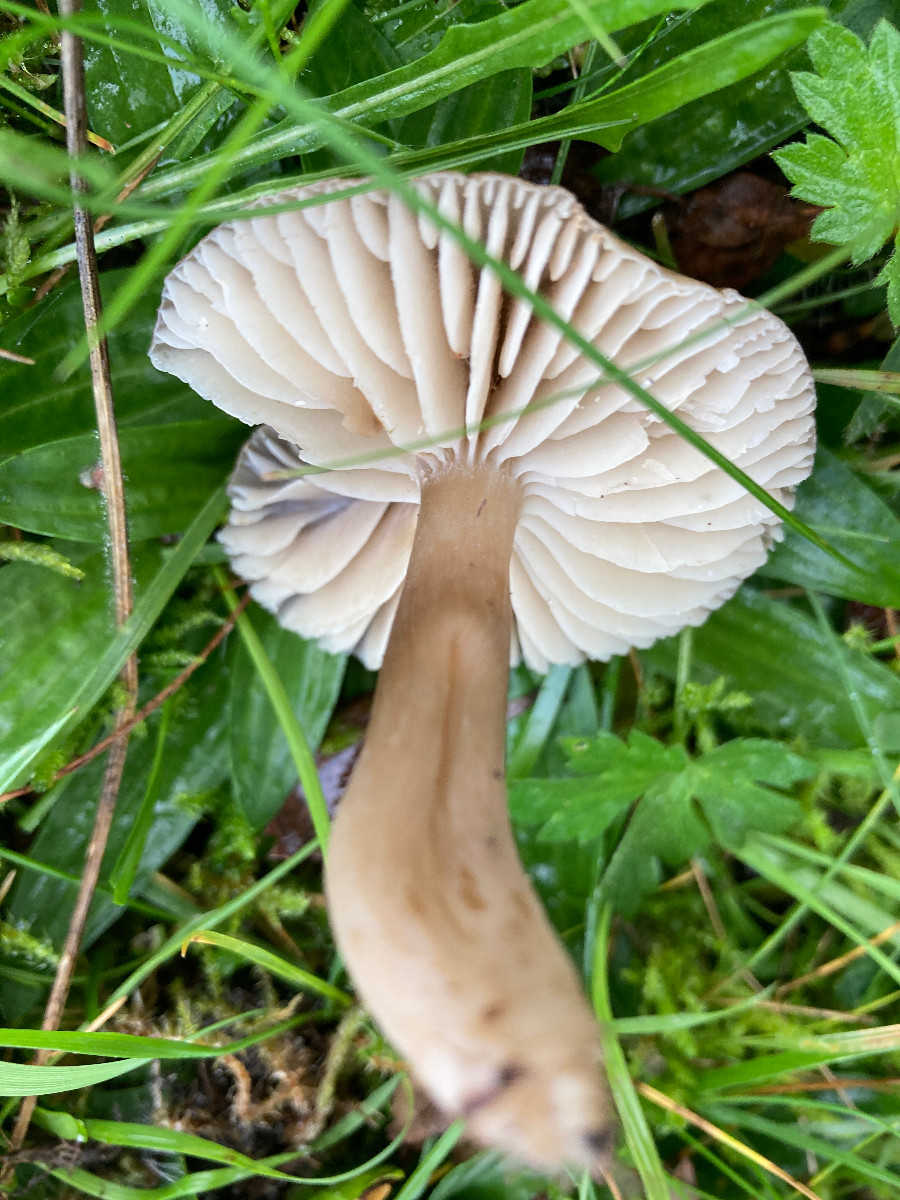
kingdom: Fungi
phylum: Basidiomycota
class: Agaricomycetes
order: Agaricales
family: Hygrophoraceae
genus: Neohygrocybe
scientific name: Neohygrocybe nitrata
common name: stinkende vokshat
